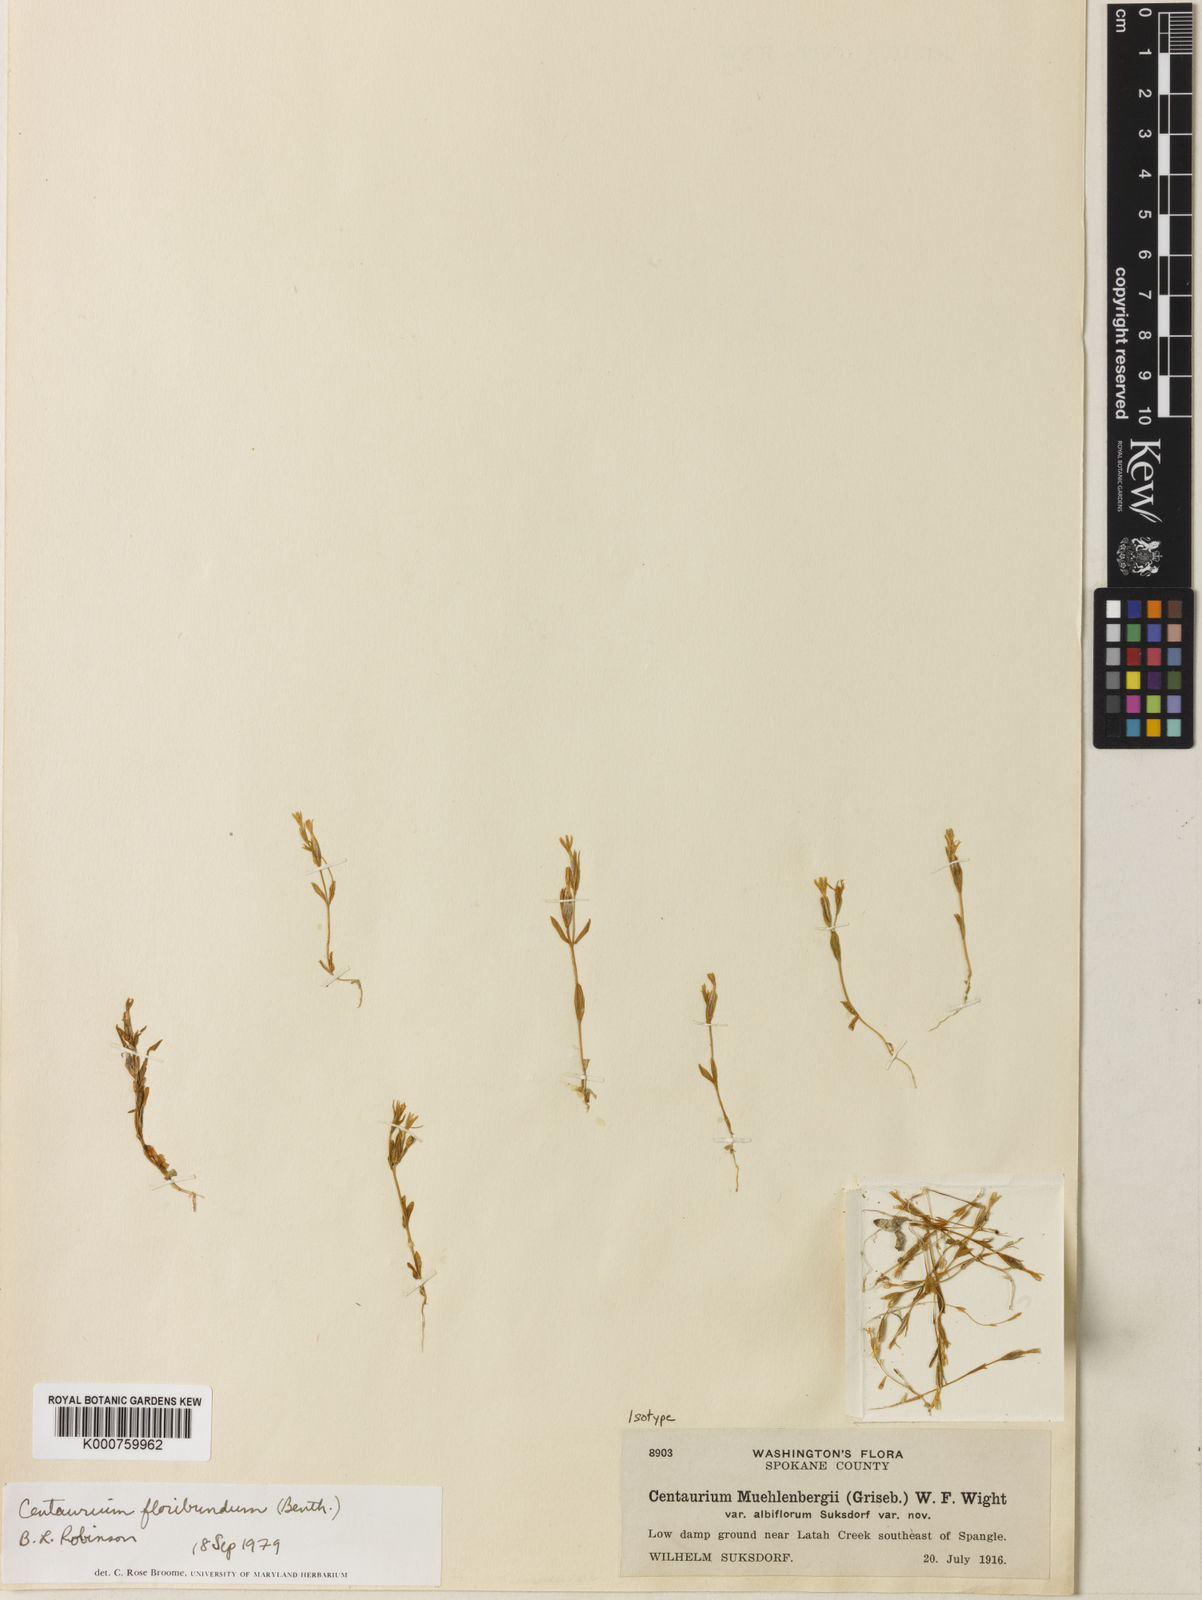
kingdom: Plantae
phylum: Tracheophyta
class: Magnoliopsida
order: Gentianales
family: Gentianaceae
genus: Zeltnera
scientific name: Zeltnera muhlenbergii
